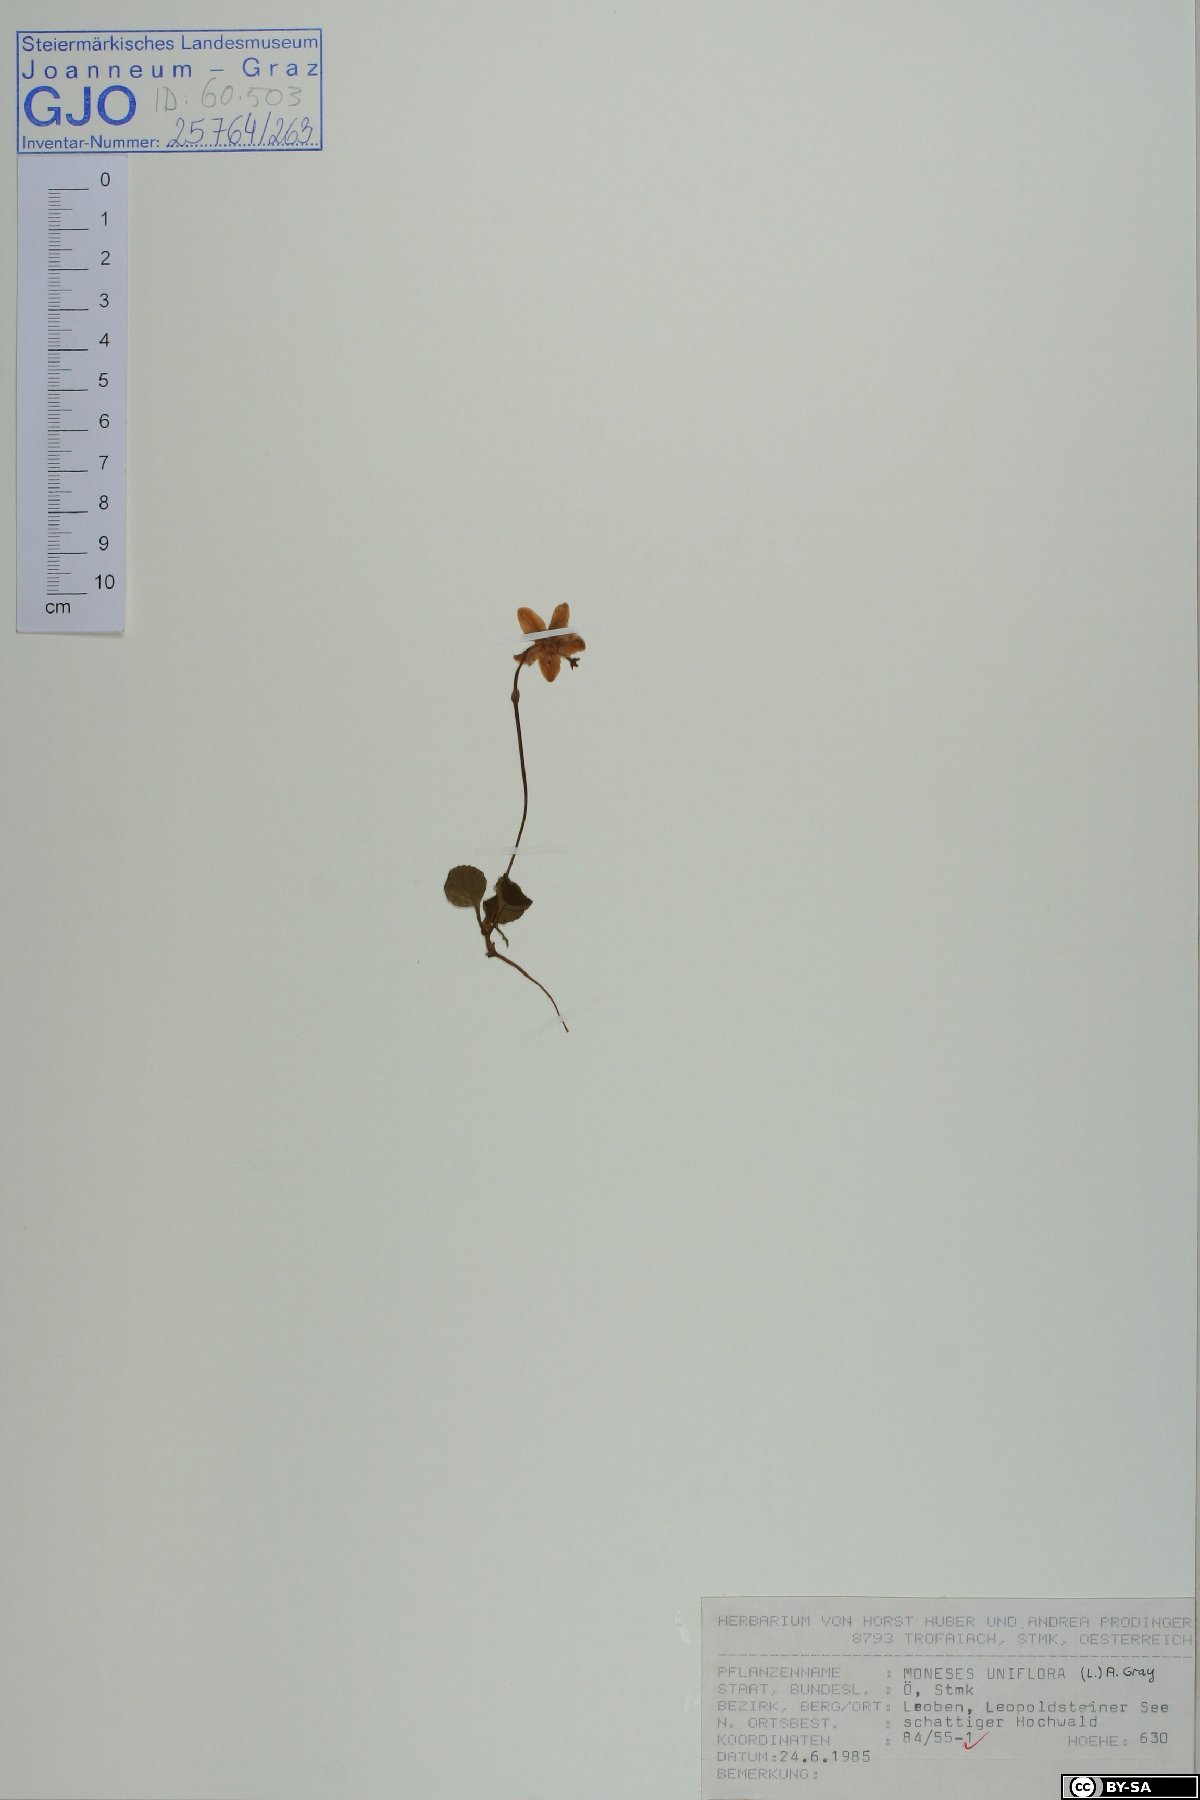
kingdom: Plantae
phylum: Tracheophyta
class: Magnoliopsida
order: Ericales
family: Ericaceae
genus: Moneses
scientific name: Moneses uniflora
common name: One-flowered wintergreen
